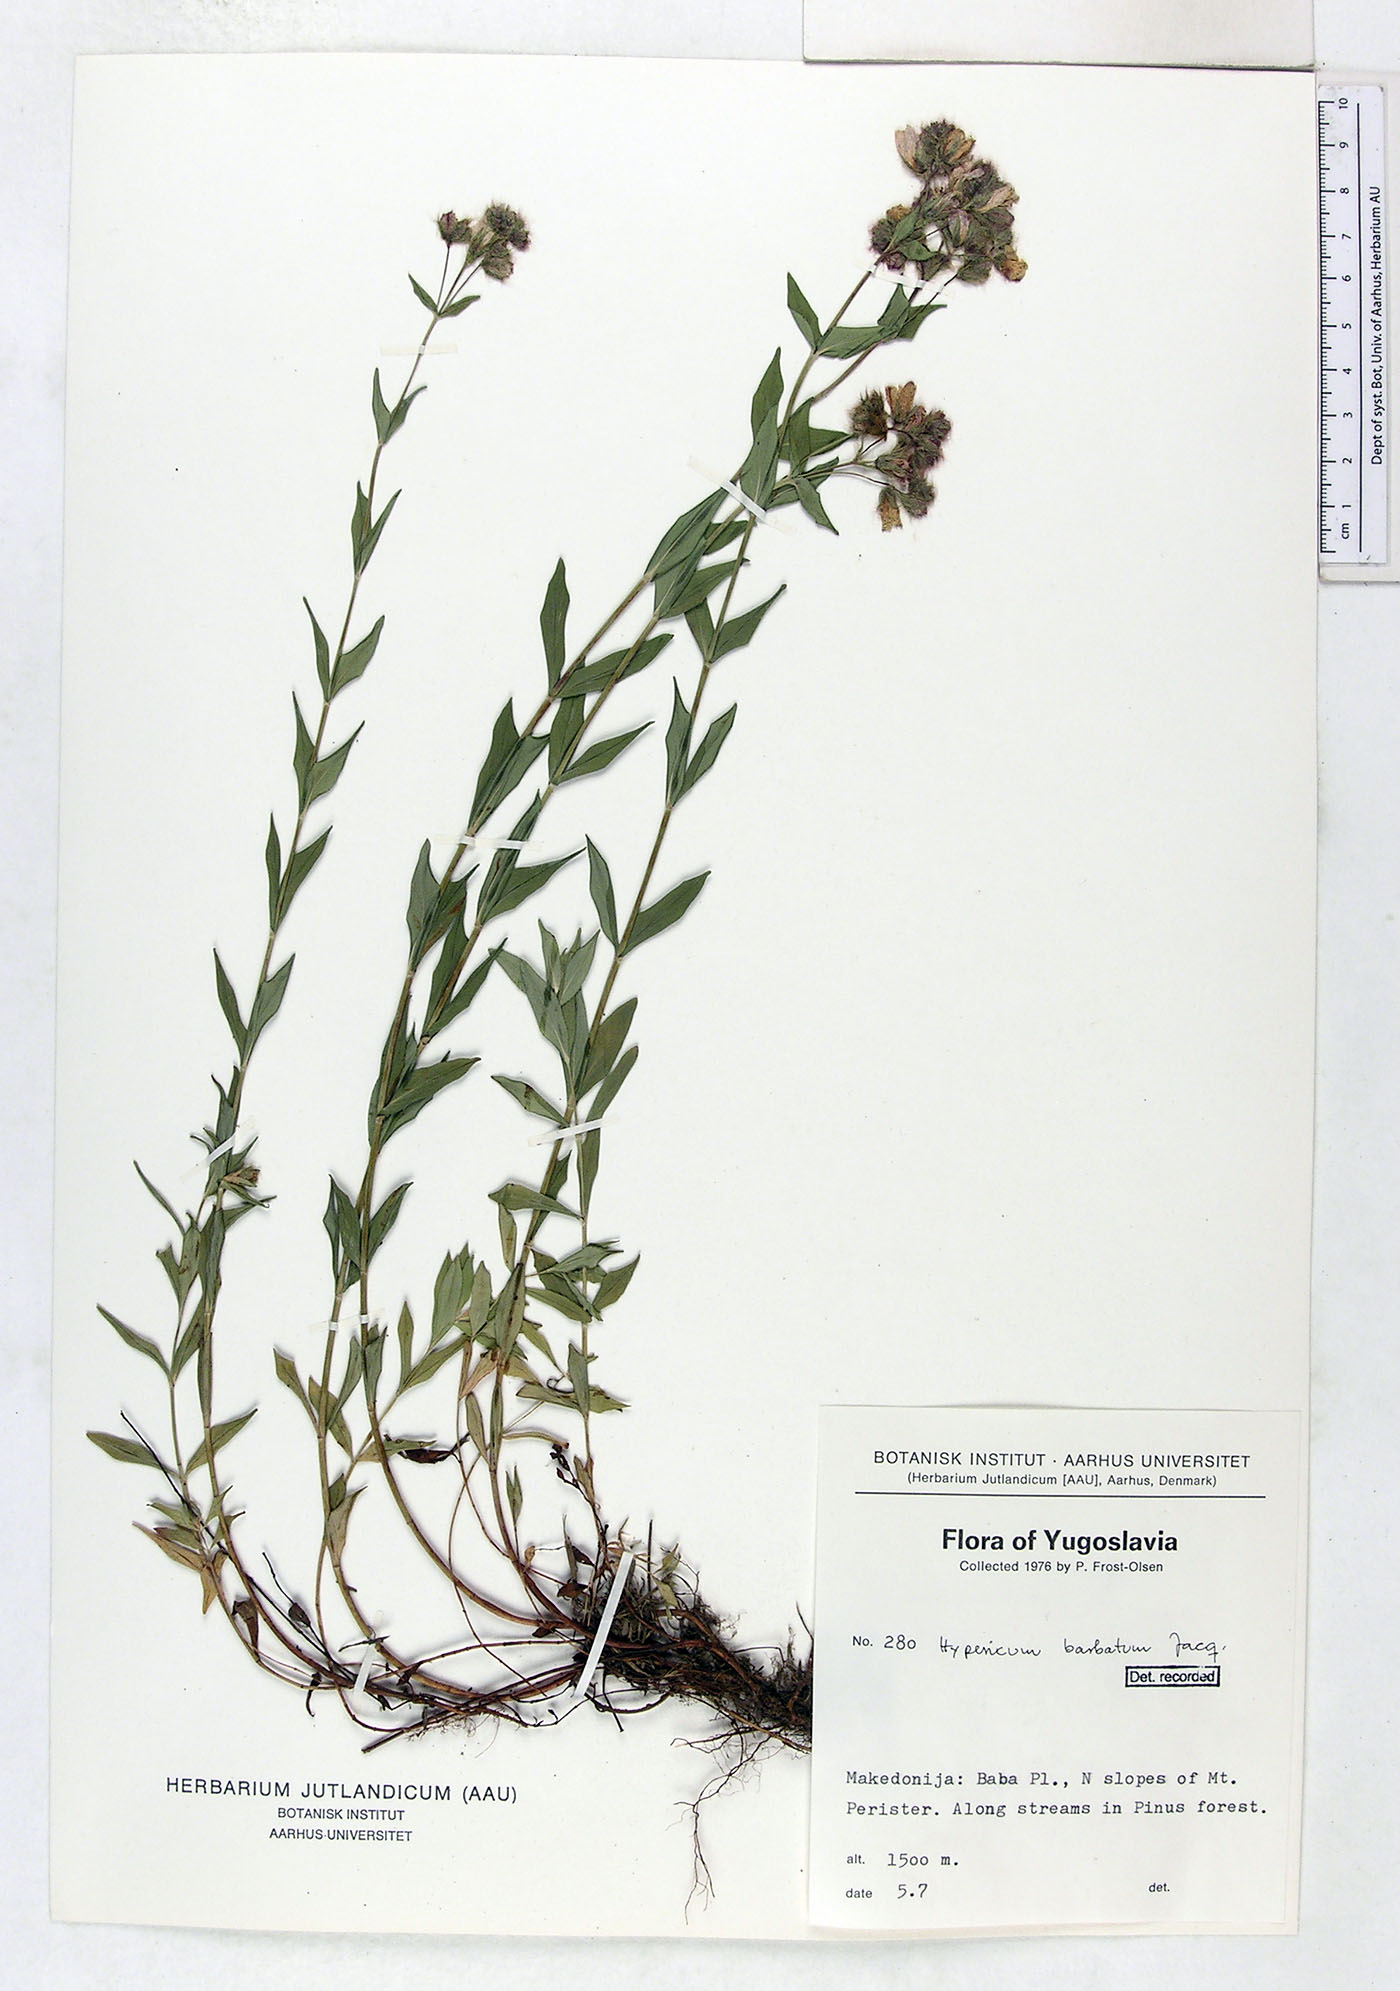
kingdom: Plantae
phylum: Tracheophyta
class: Magnoliopsida
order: Malpighiales
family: Hypericaceae
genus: Hypericum
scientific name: Hypericum barbatum
